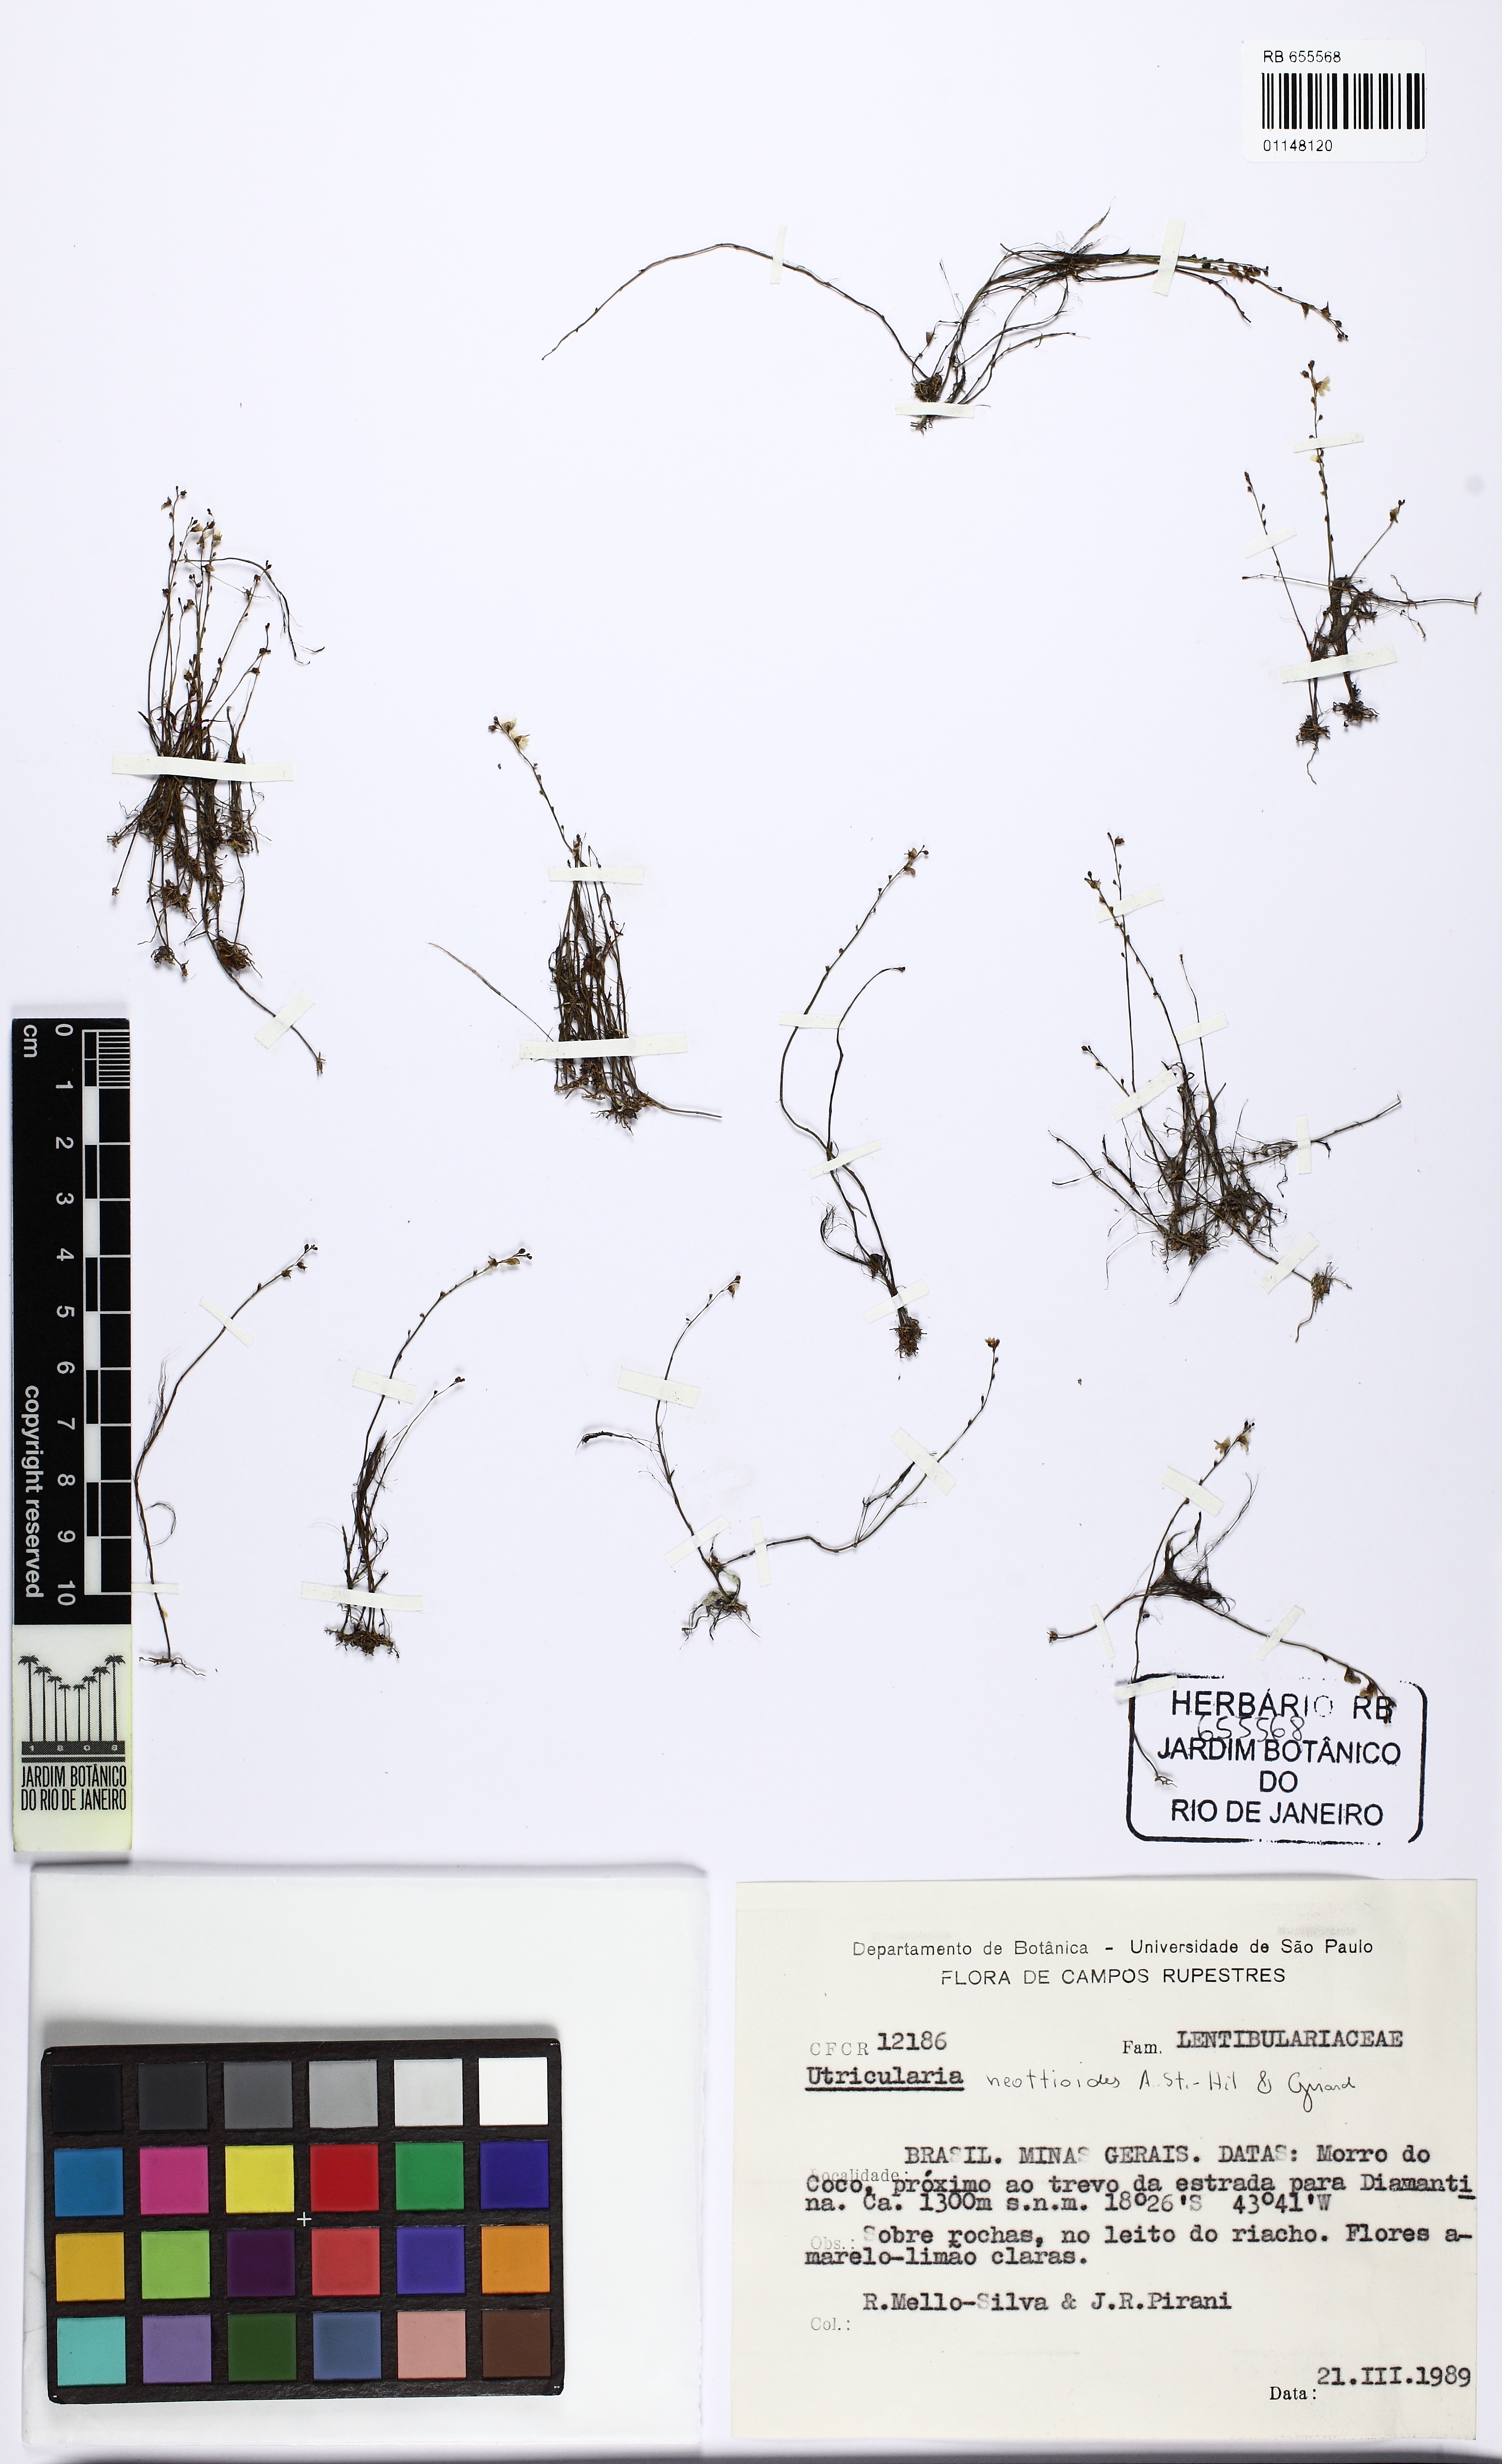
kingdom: Plantae
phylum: Tracheophyta
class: Magnoliopsida
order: Lamiales
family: Lentibulariaceae
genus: Utricularia
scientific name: Utricularia neottioides
